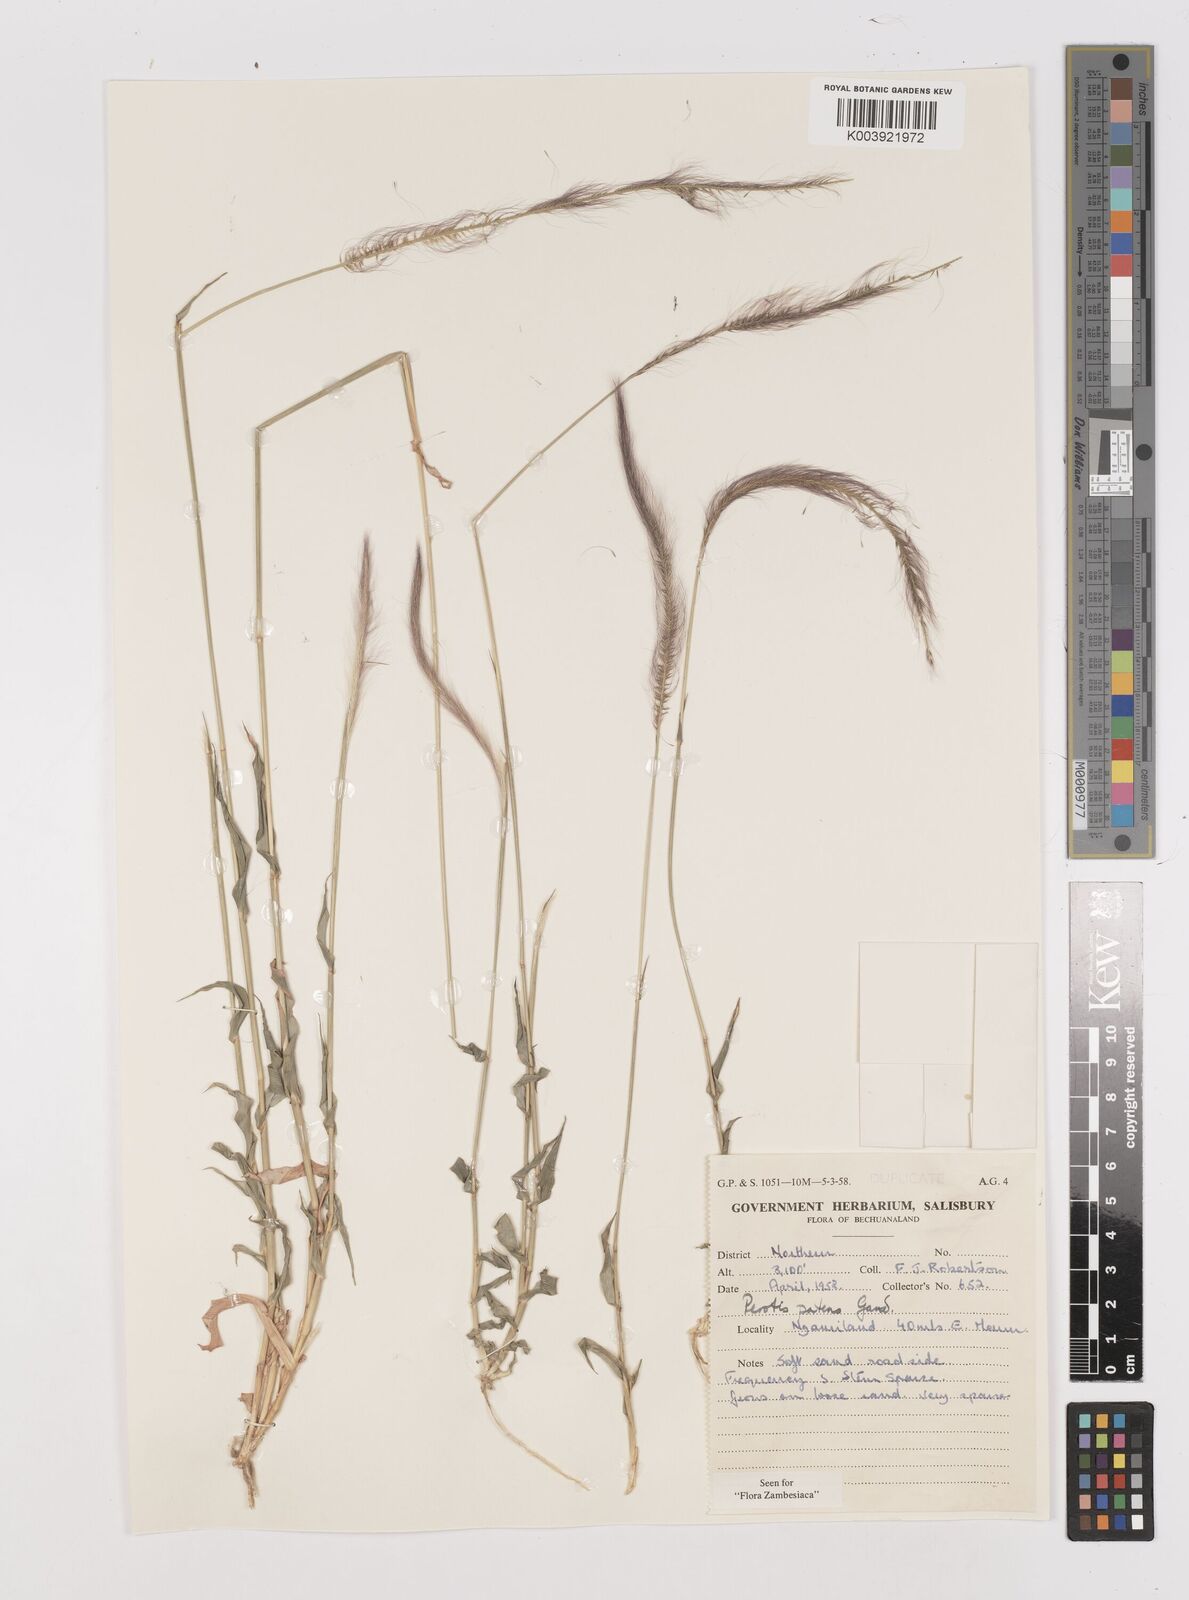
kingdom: Plantae
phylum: Tracheophyta
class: Liliopsida
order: Poales
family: Poaceae
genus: Perotis
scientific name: Perotis patens
